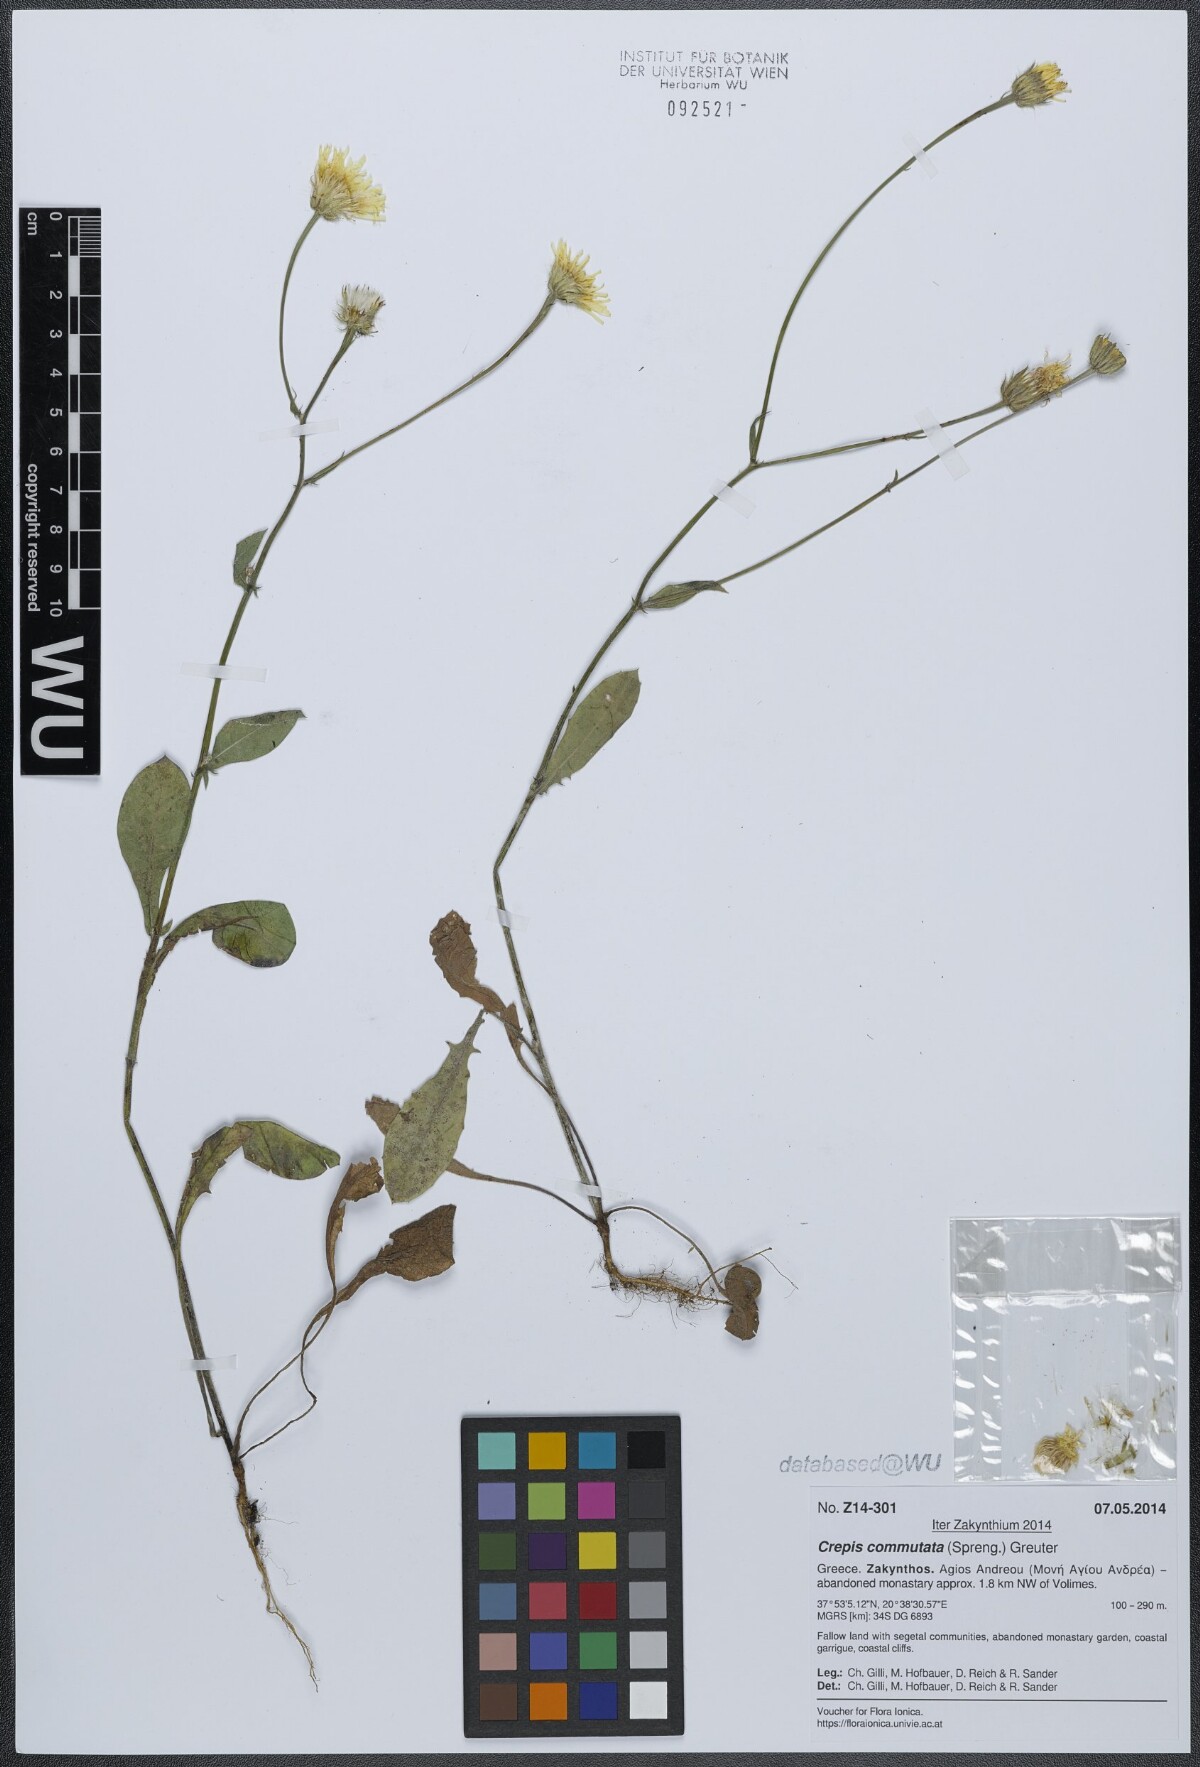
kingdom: Plantae
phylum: Tracheophyta
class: Magnoliopsida
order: Asterales
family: Asteraceae
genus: Crepis
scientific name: Crepis commutata
